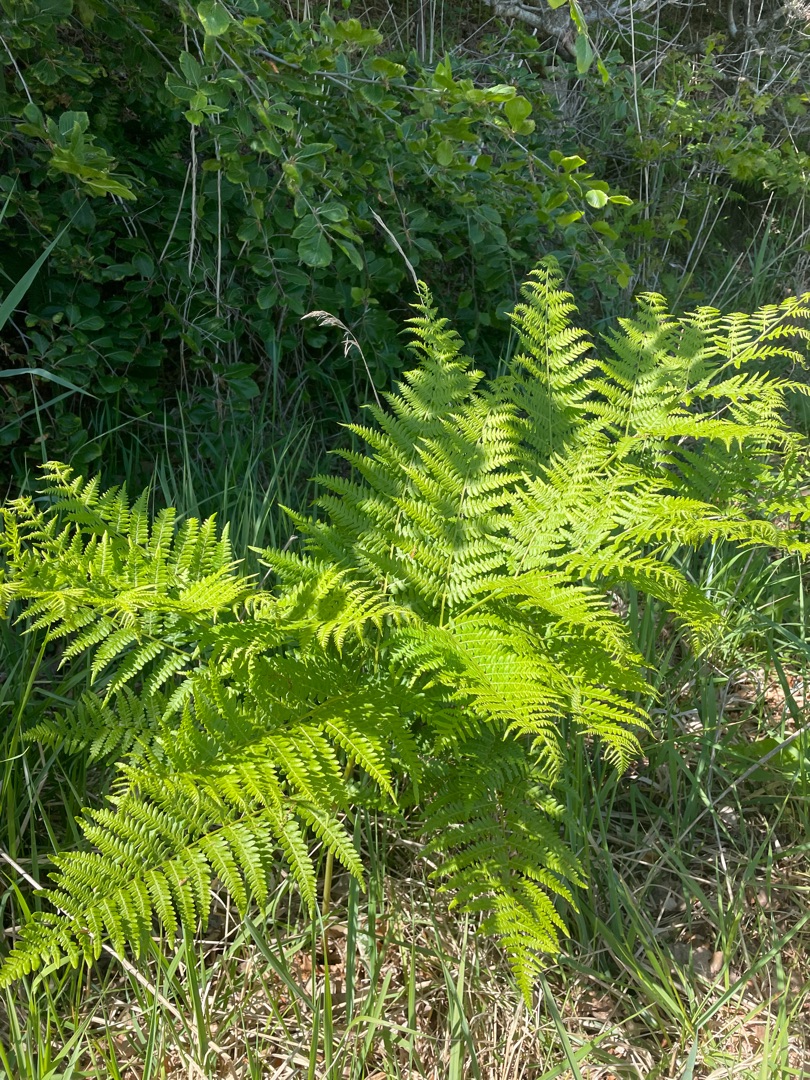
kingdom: Plantae
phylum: Tracheophyta
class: Polypodiopsida
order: Polypodiales
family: Dennstaedtiaceae
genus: Pteridium
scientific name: Pteridium aquilinum
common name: Ørnebregne
